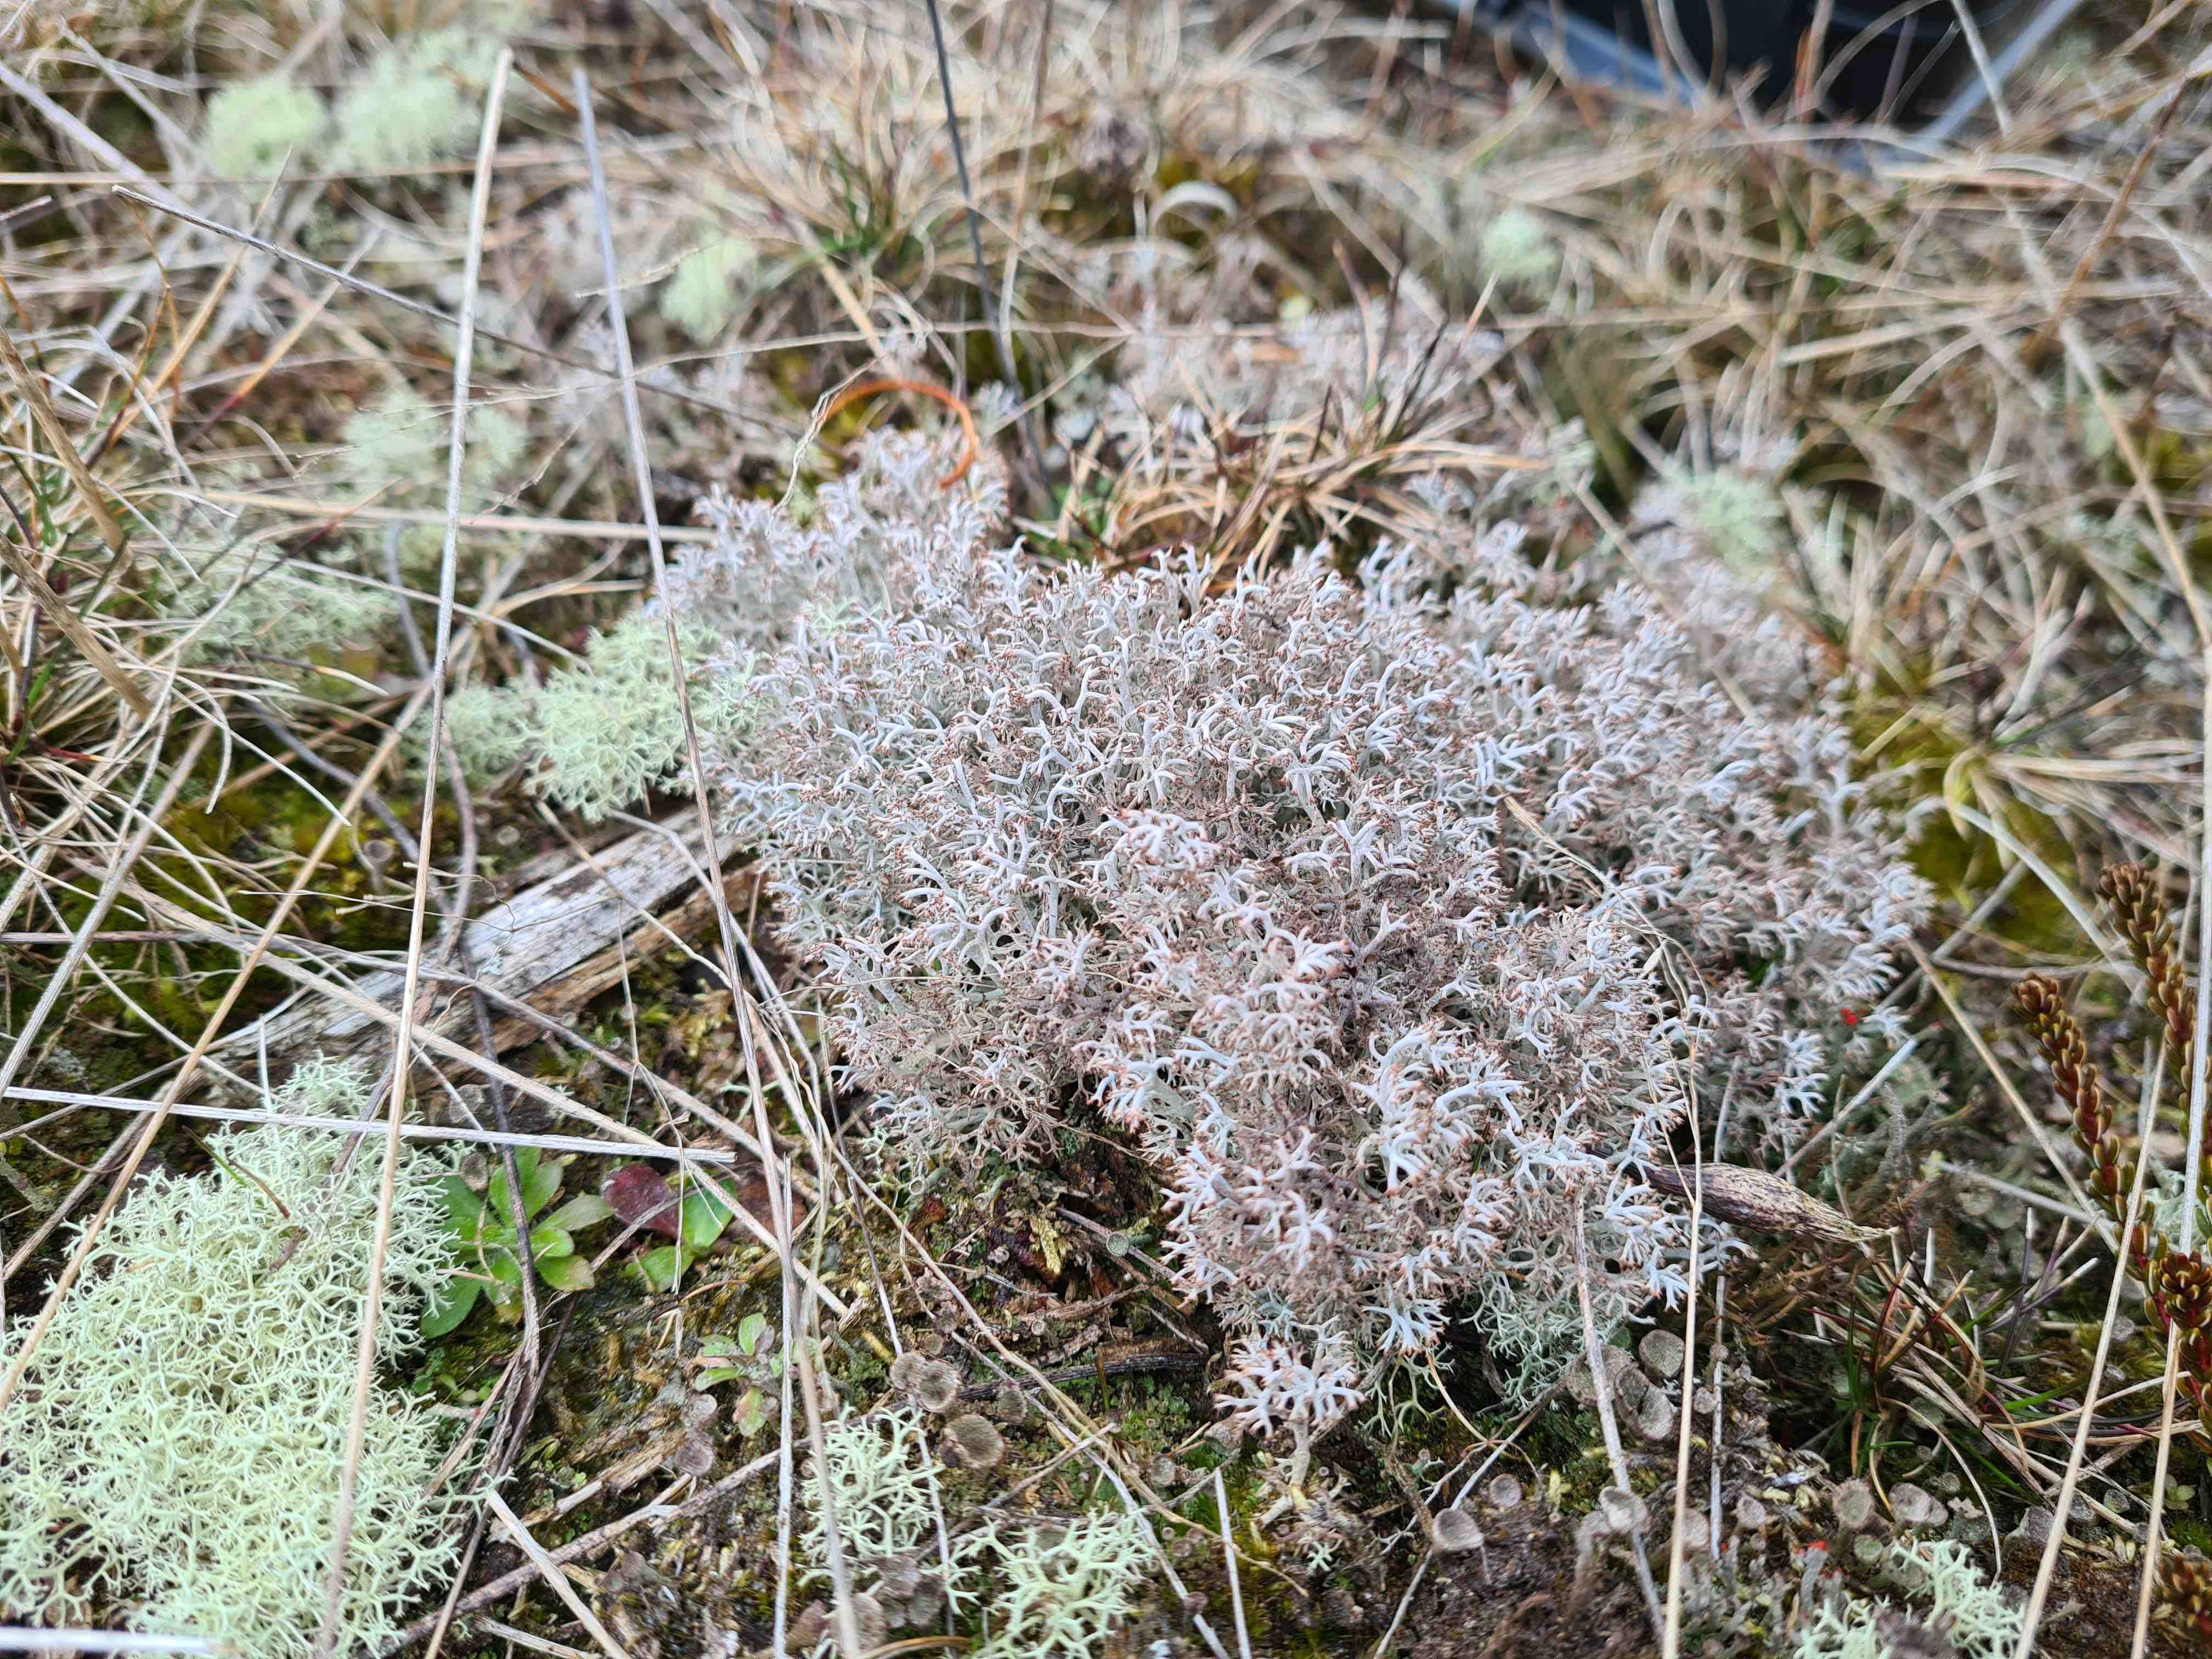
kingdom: Fungi
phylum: Ascomycota
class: Lecanoromycetes
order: Lecanorales
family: Cladoniaceae
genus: Cladonia
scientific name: Cladonia rangiferina
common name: askegrå rensdyrlav
